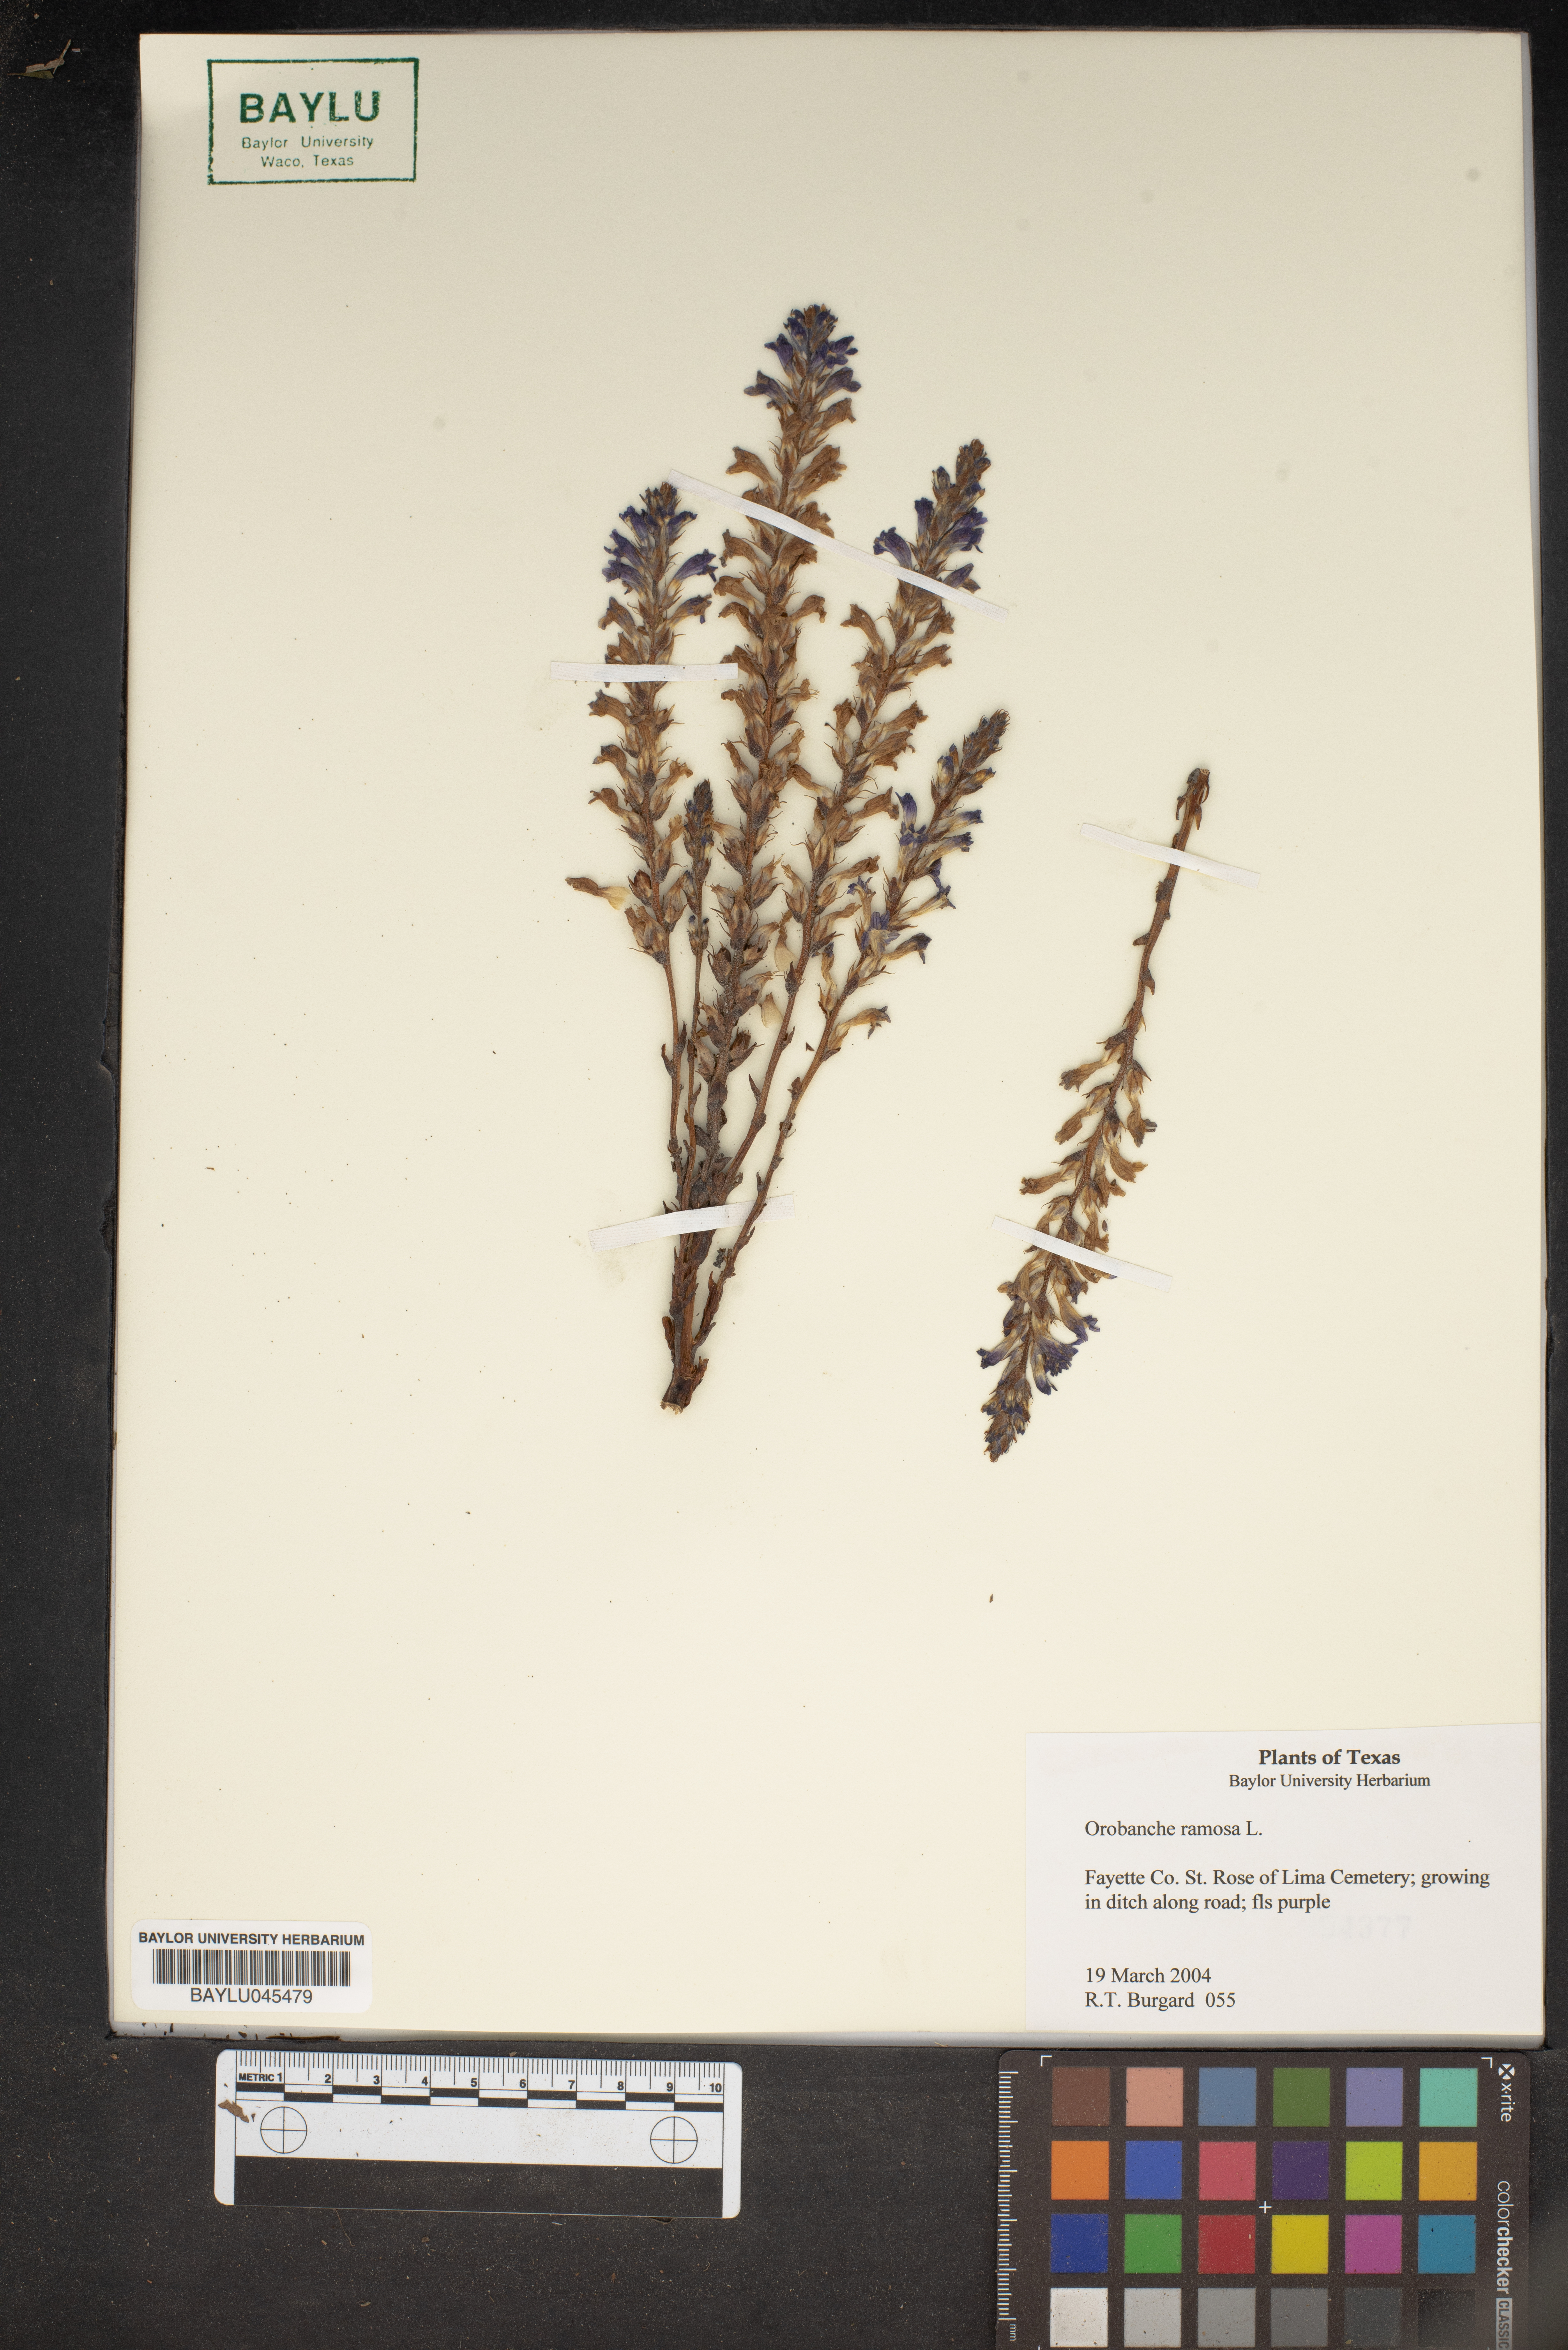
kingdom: Plantae
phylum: Tracheophyta
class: Magnoliopsida
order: Lamiales
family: Orobanchaceae
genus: Phelipanche
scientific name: Phelipanche ramosa
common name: Branched broomrape
